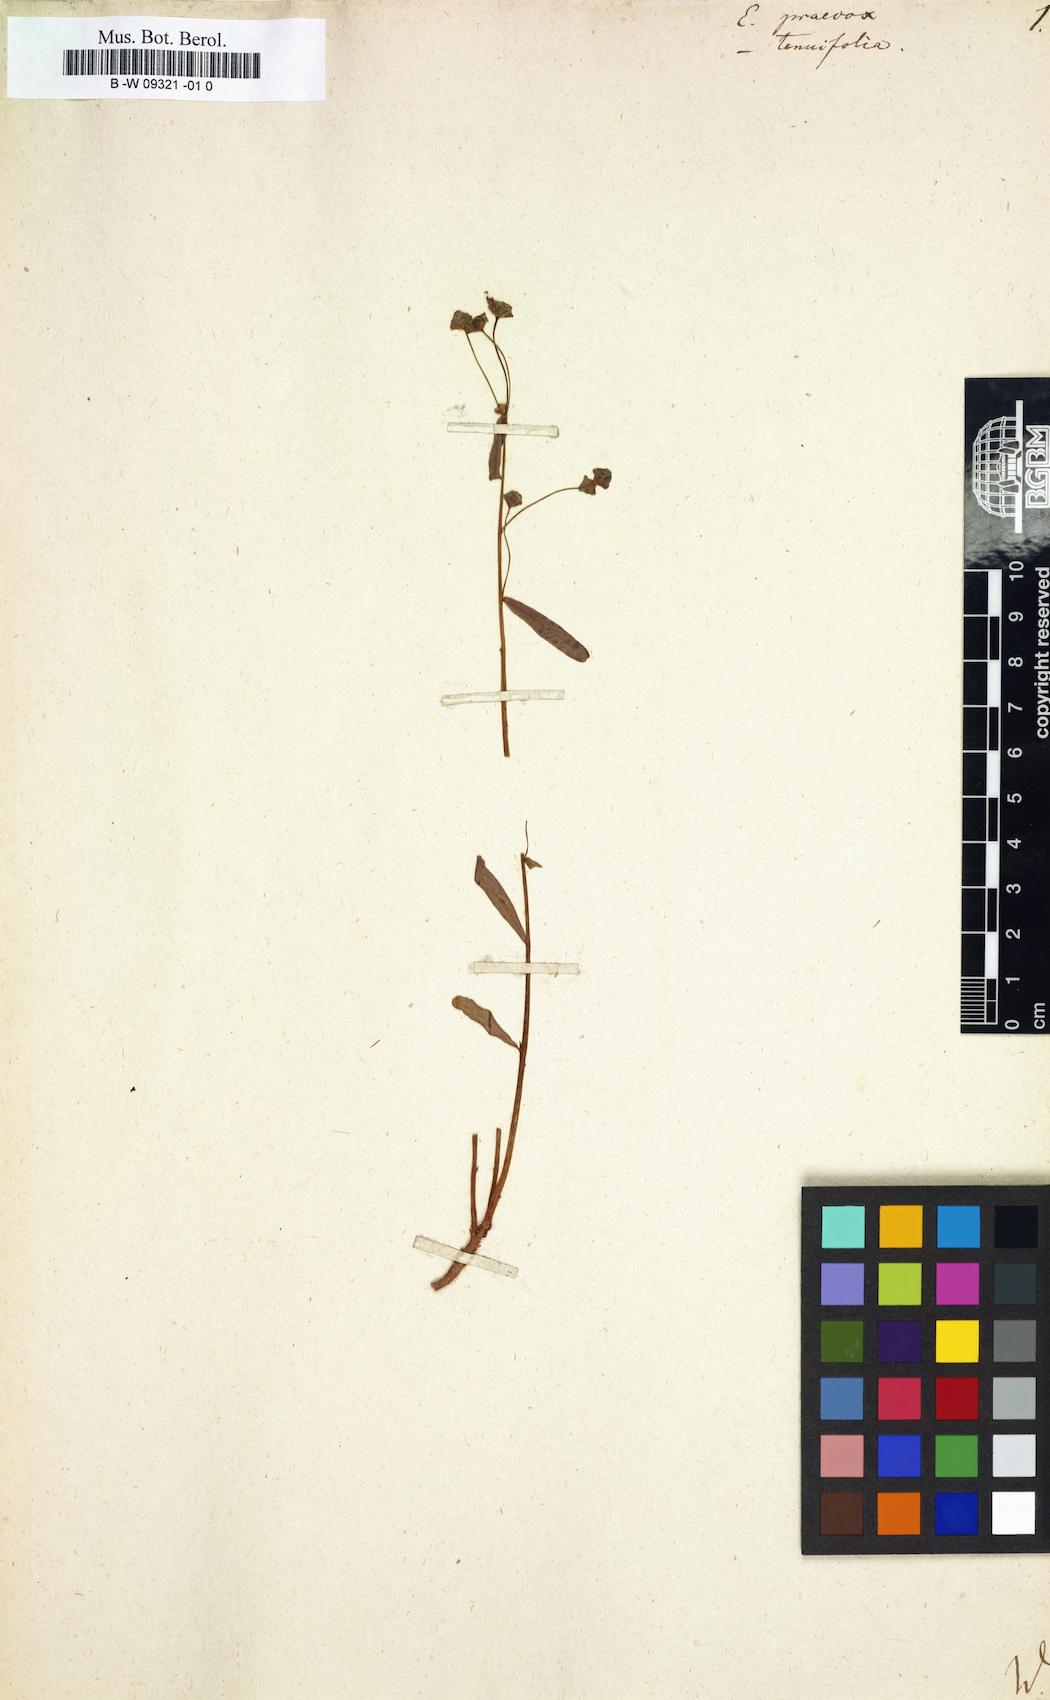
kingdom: Plantae
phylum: Tracheophyta
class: Magnoliopsida
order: Malpighiales
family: Euphorbiaceae
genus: Euphorbia
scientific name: Euphorbia astrachanica
